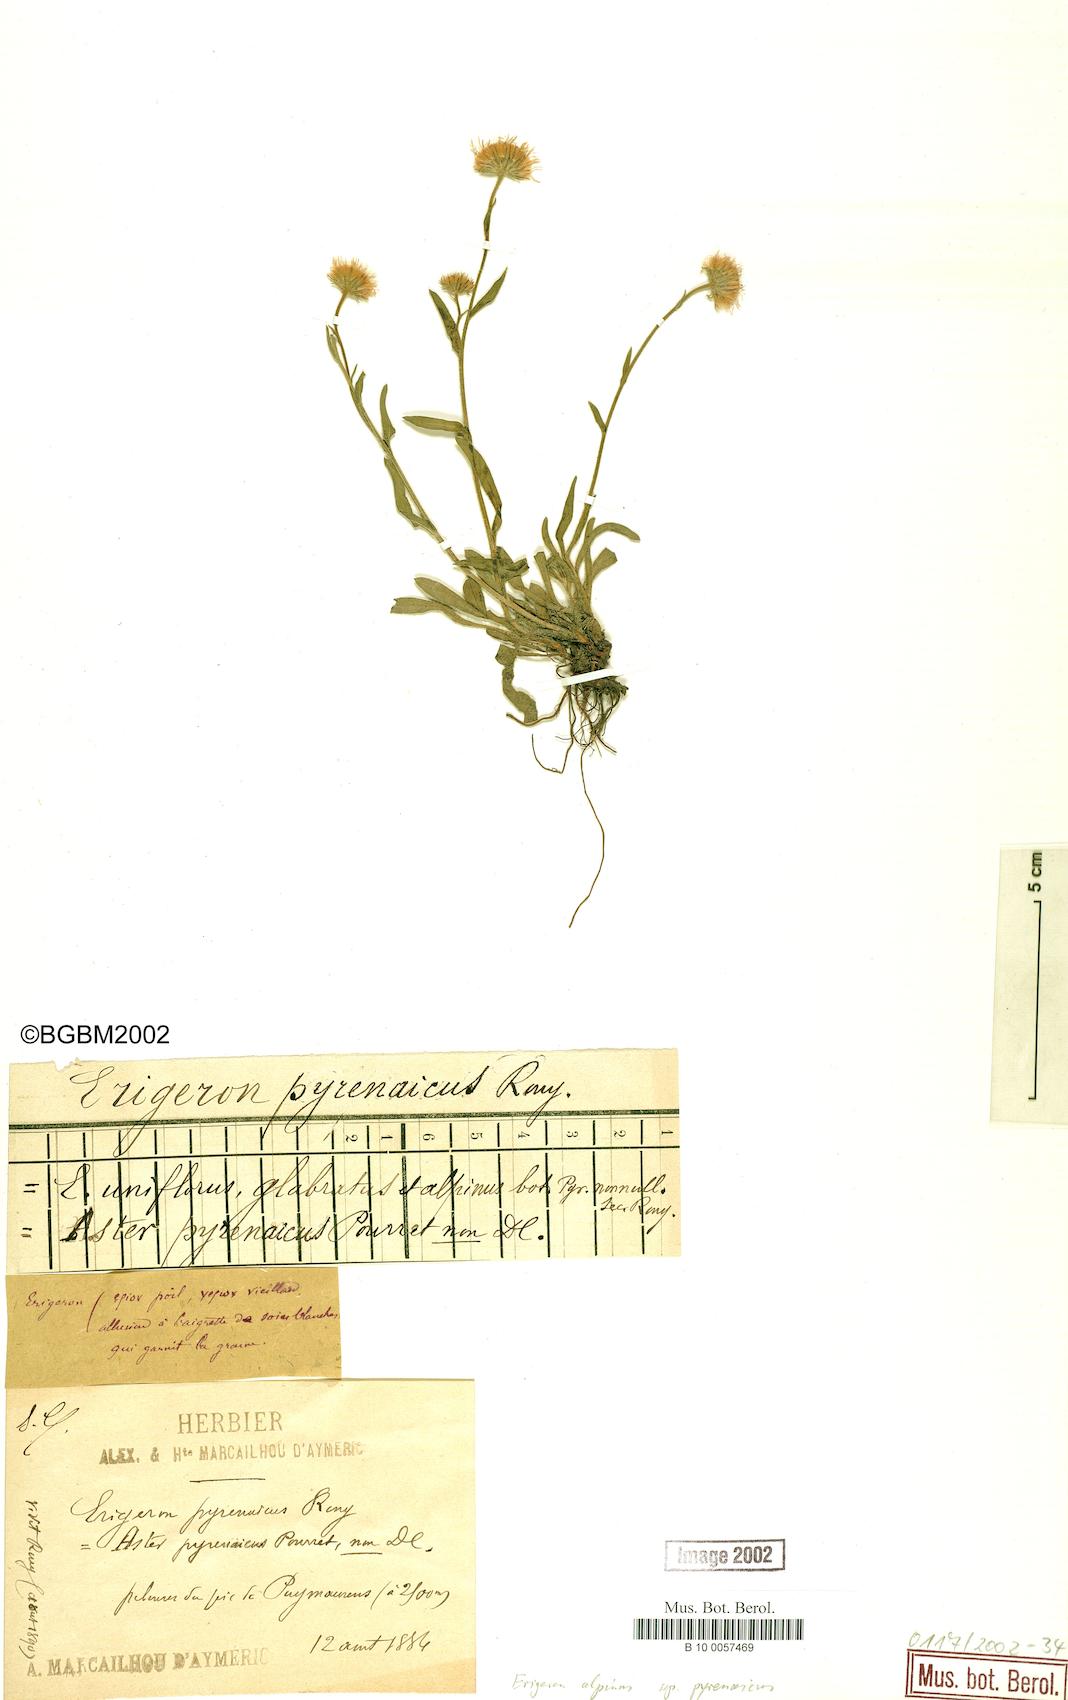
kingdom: Plantae
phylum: Tracheophyta
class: Magnoliopsida
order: Asterales
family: Asteraceae
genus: Erigeron
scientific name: Erigeron uniflorus
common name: Northern daisy
